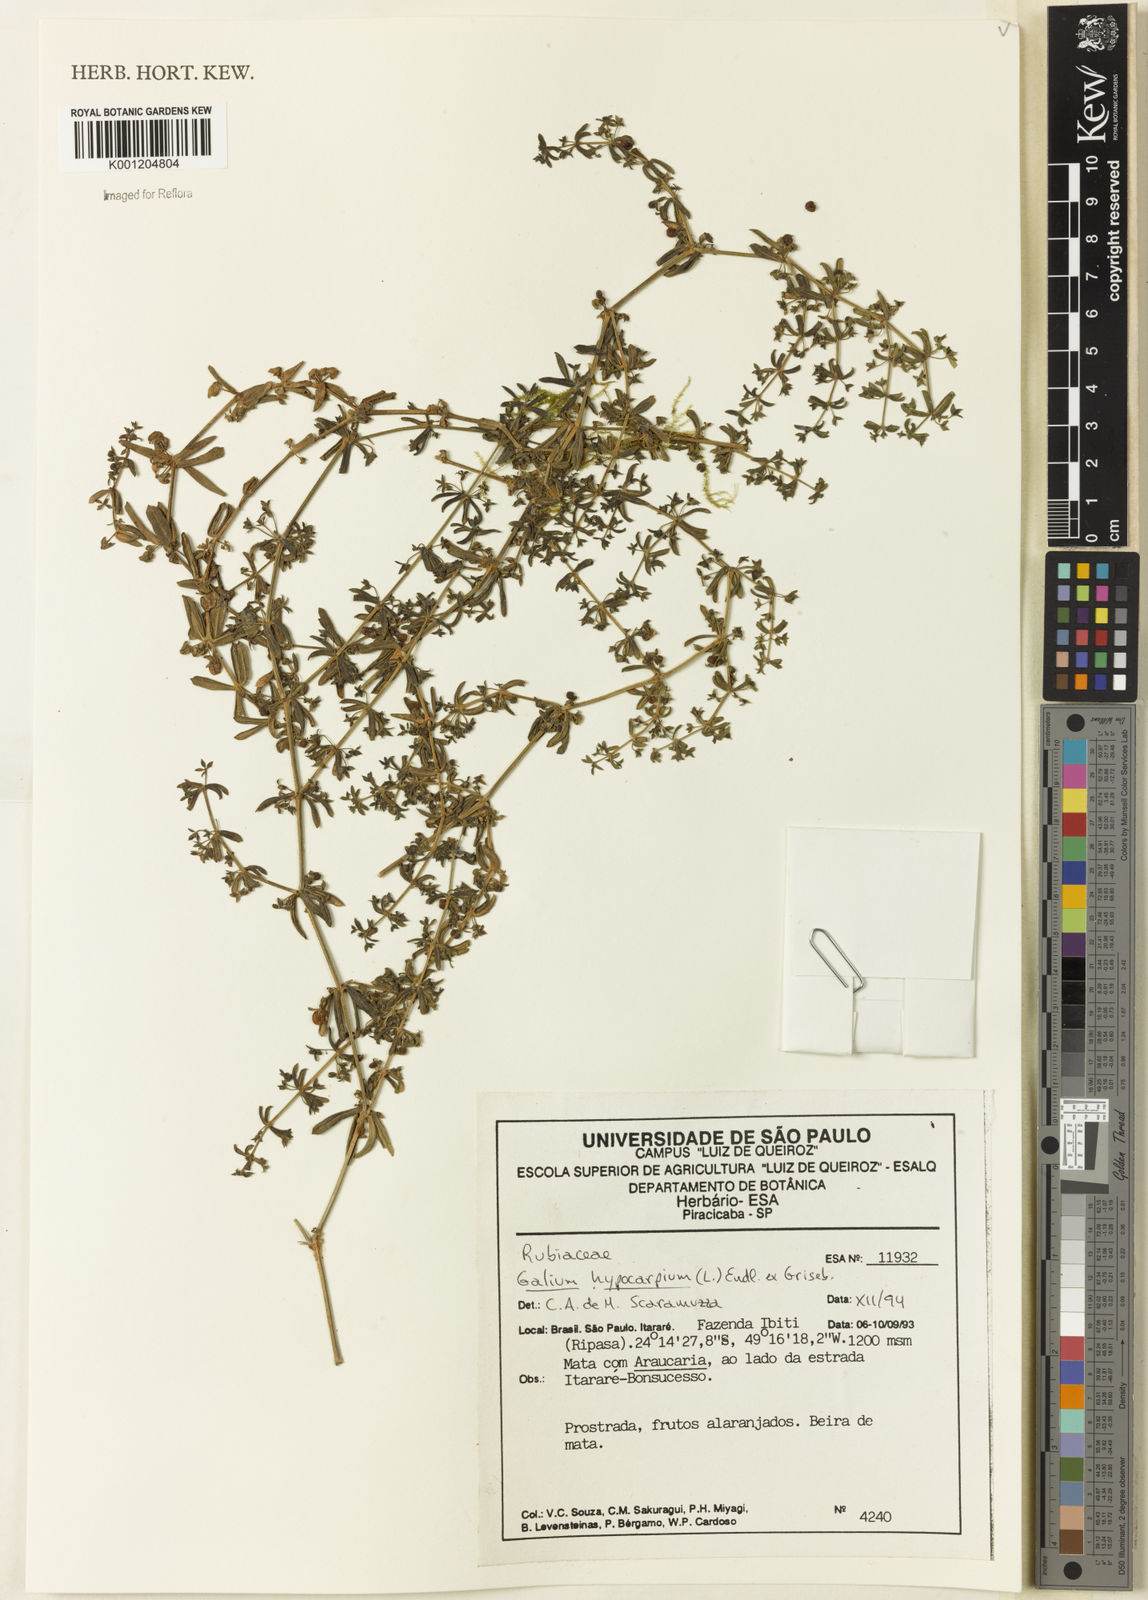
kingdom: Plantae
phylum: Tracheophyta
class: Magnoliopsida
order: Gentianales
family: Rubiaceae
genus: Galium
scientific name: Galium hypocarpium
